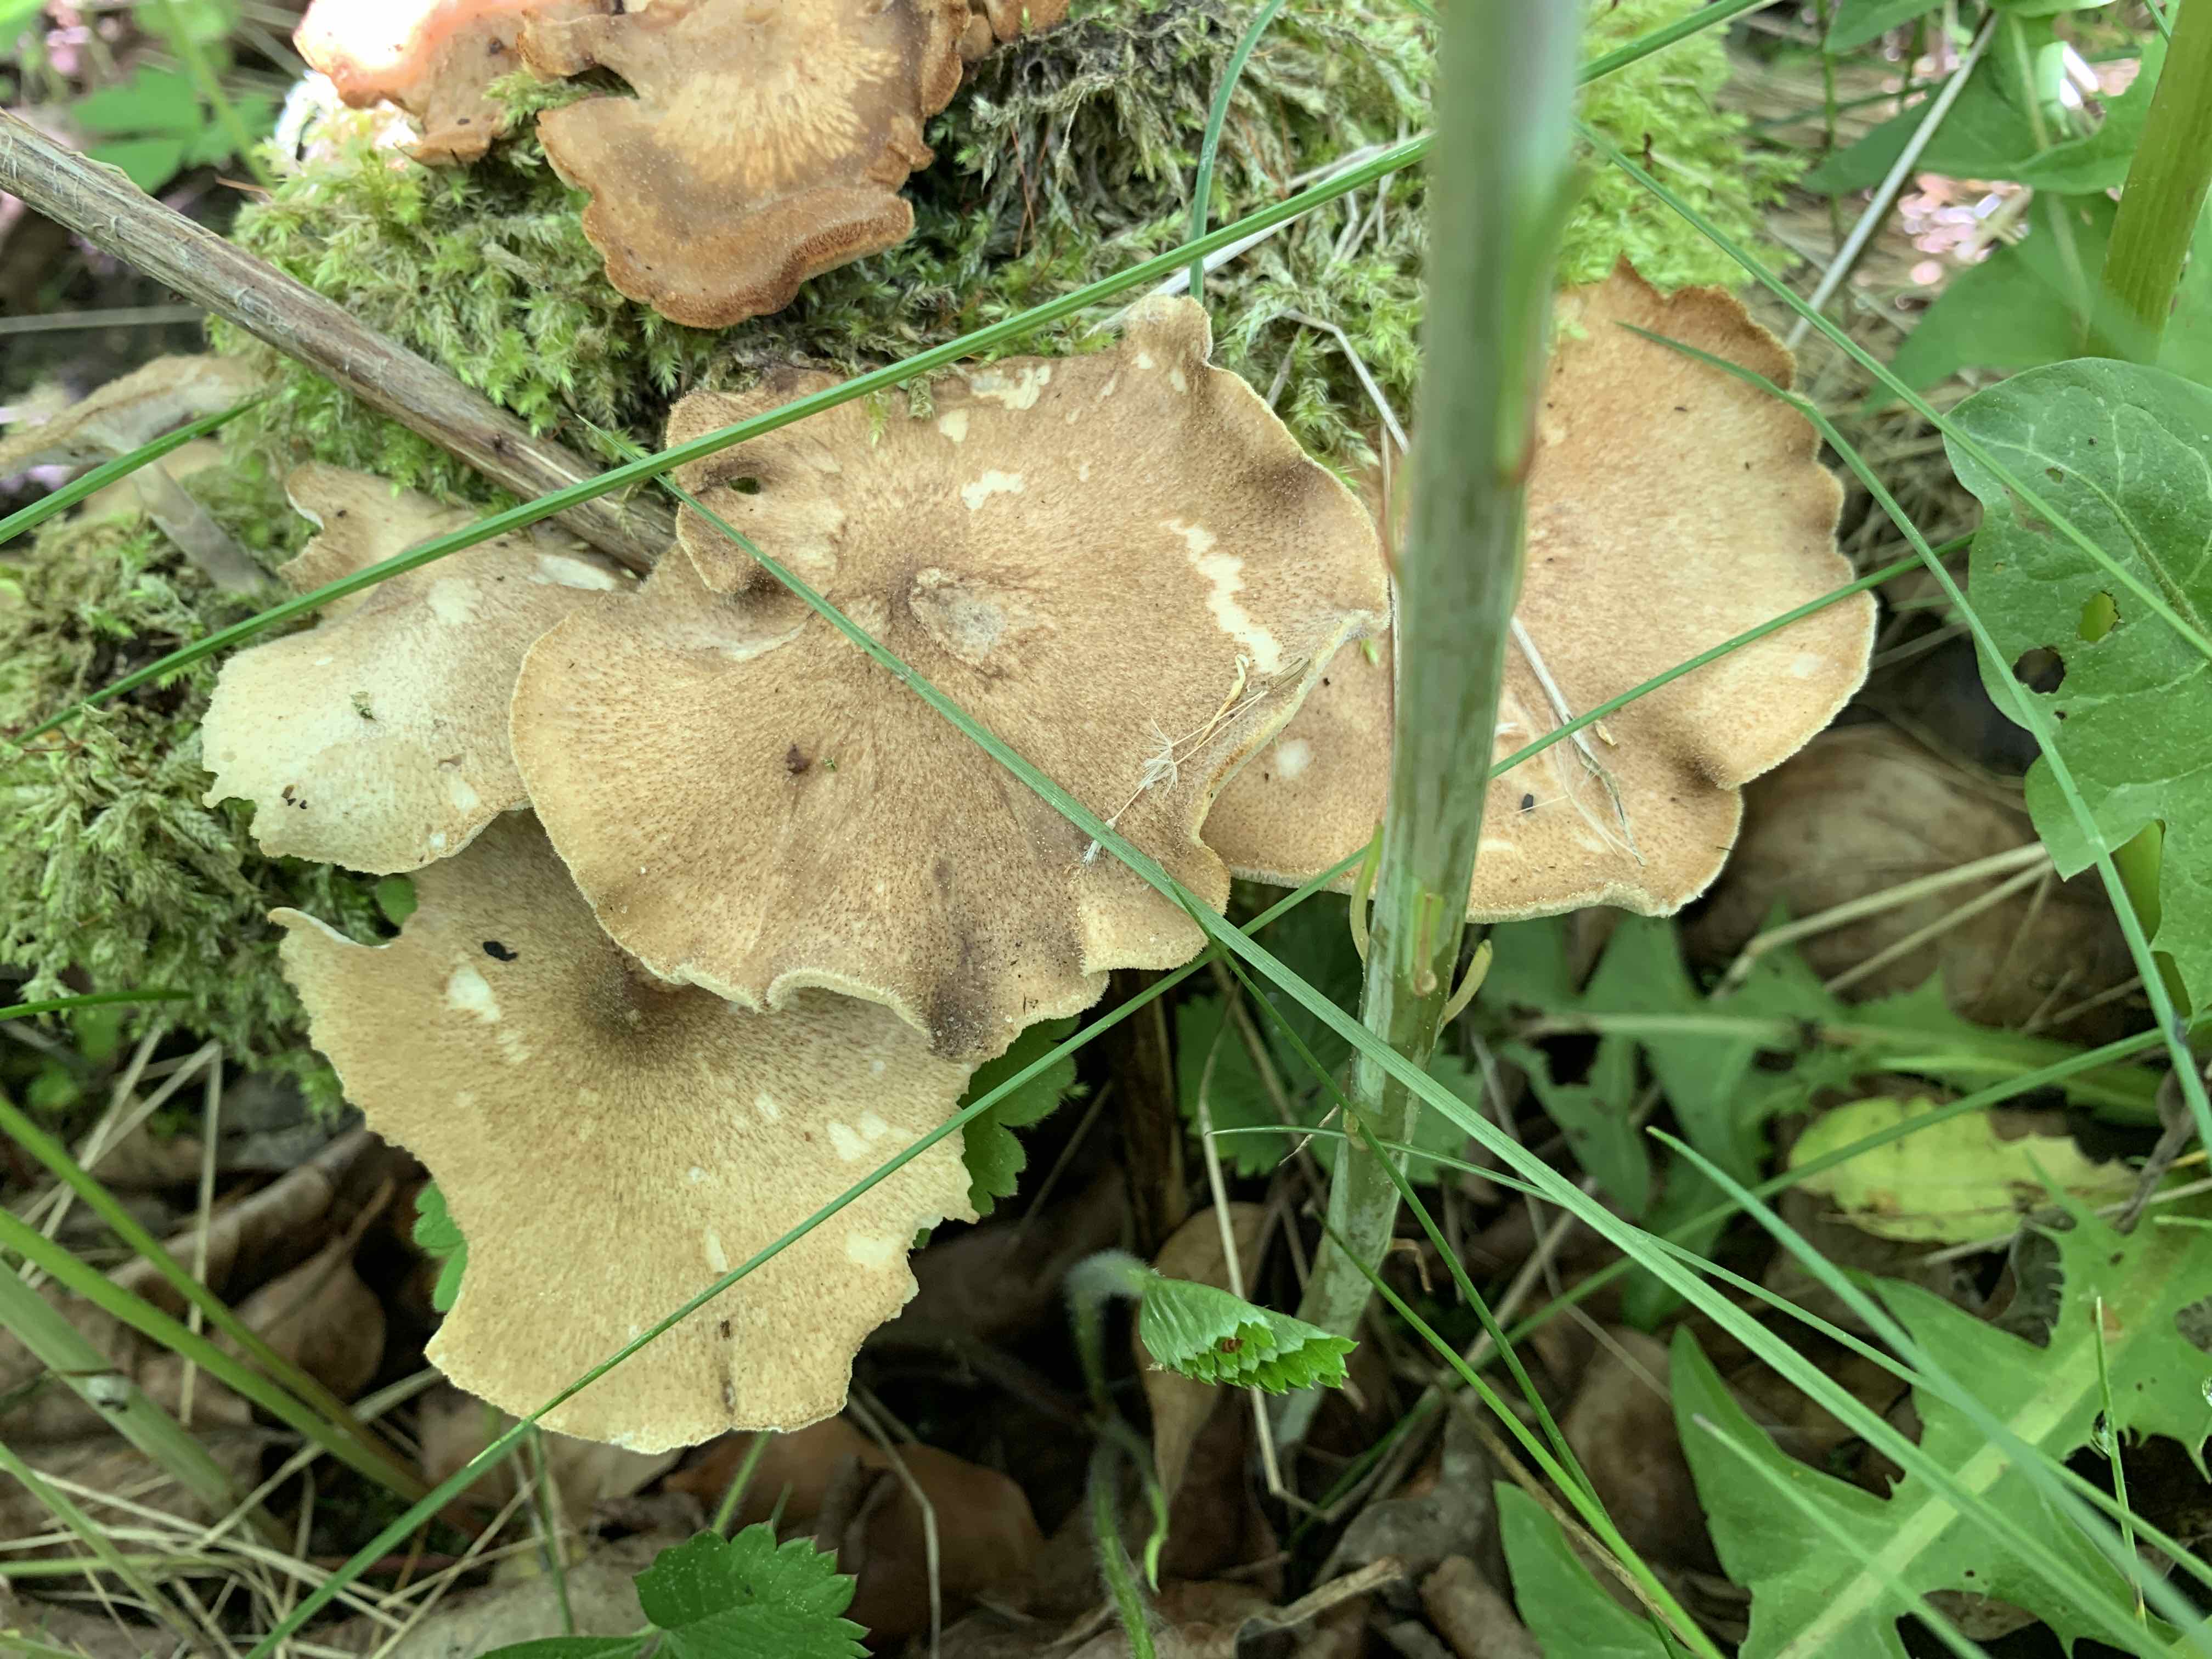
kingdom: Fungi
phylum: Basidiomycota
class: Agaricomycetes
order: Polyporales
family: Polyporaceae
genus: Lentinus
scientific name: Lentinus substrictus
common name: forårs-stilkporesvamp
